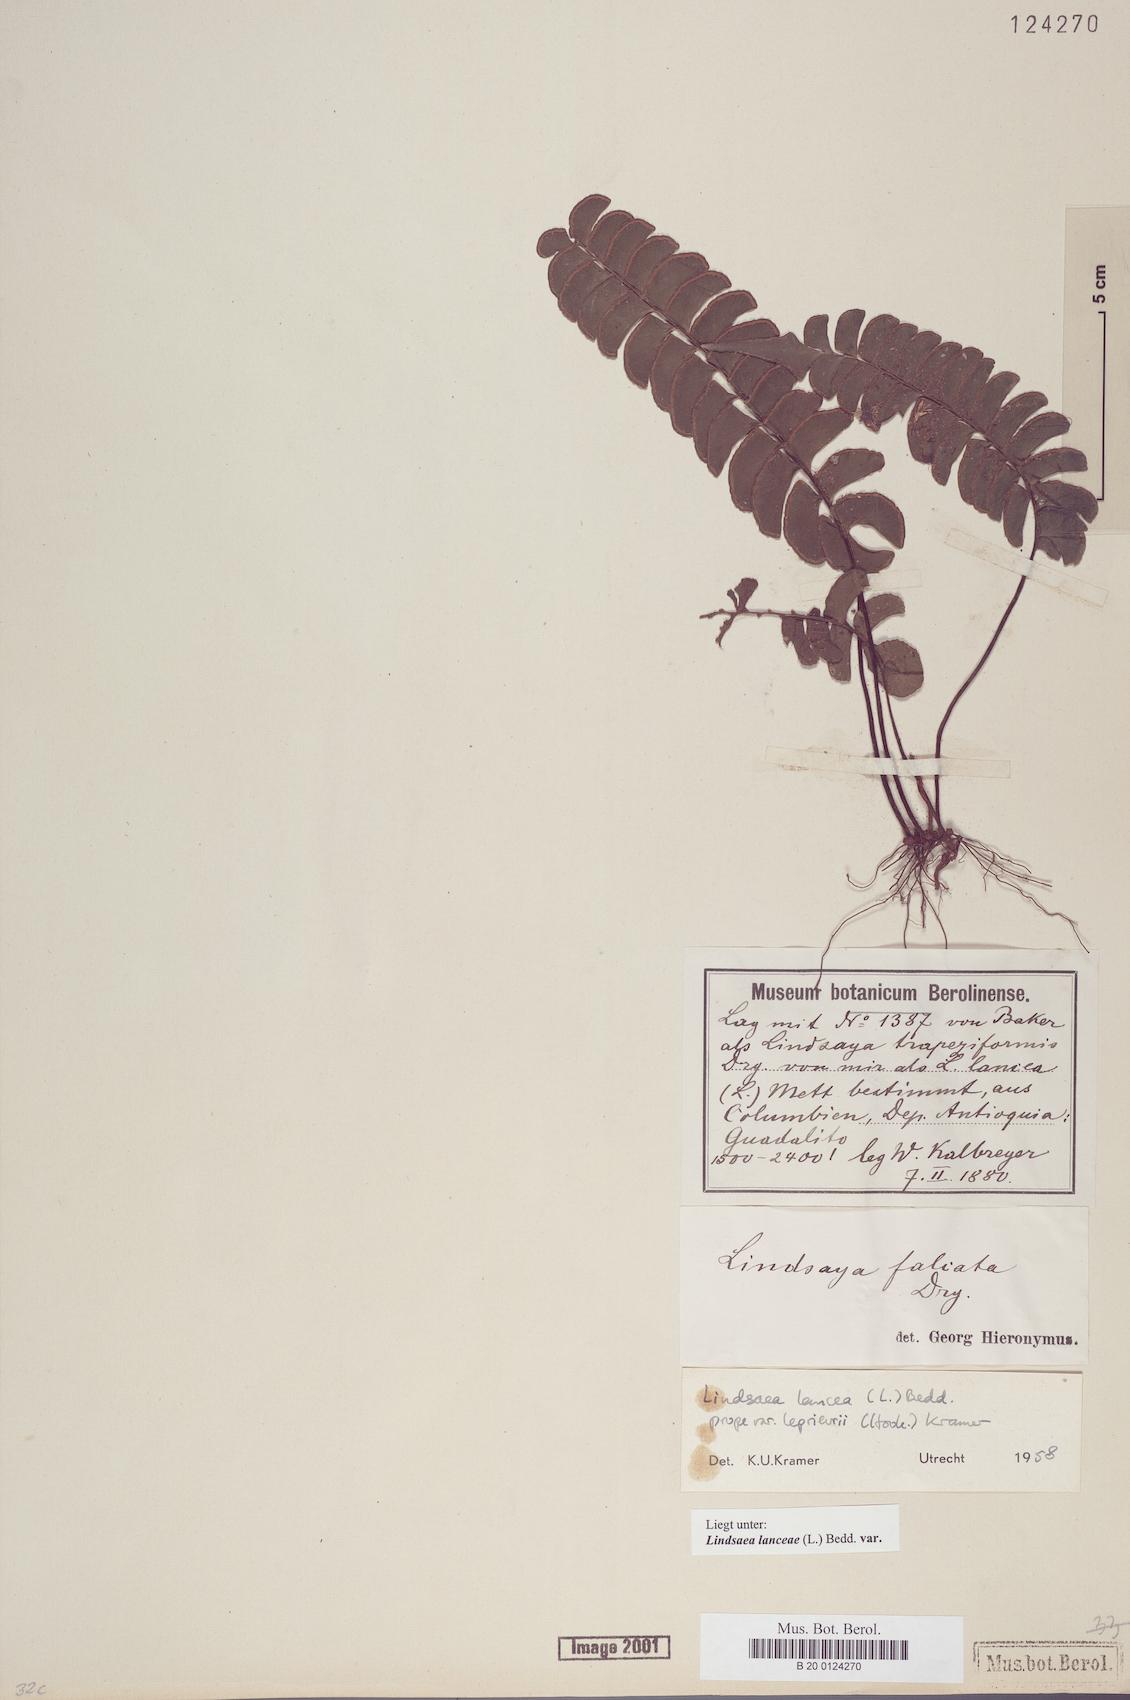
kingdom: Plantae
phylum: Tracheophyta
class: Polypodiopsida
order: Polypodiales
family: Lindsaeaceae
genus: Lindsaea
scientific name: Lindsaea lancea
